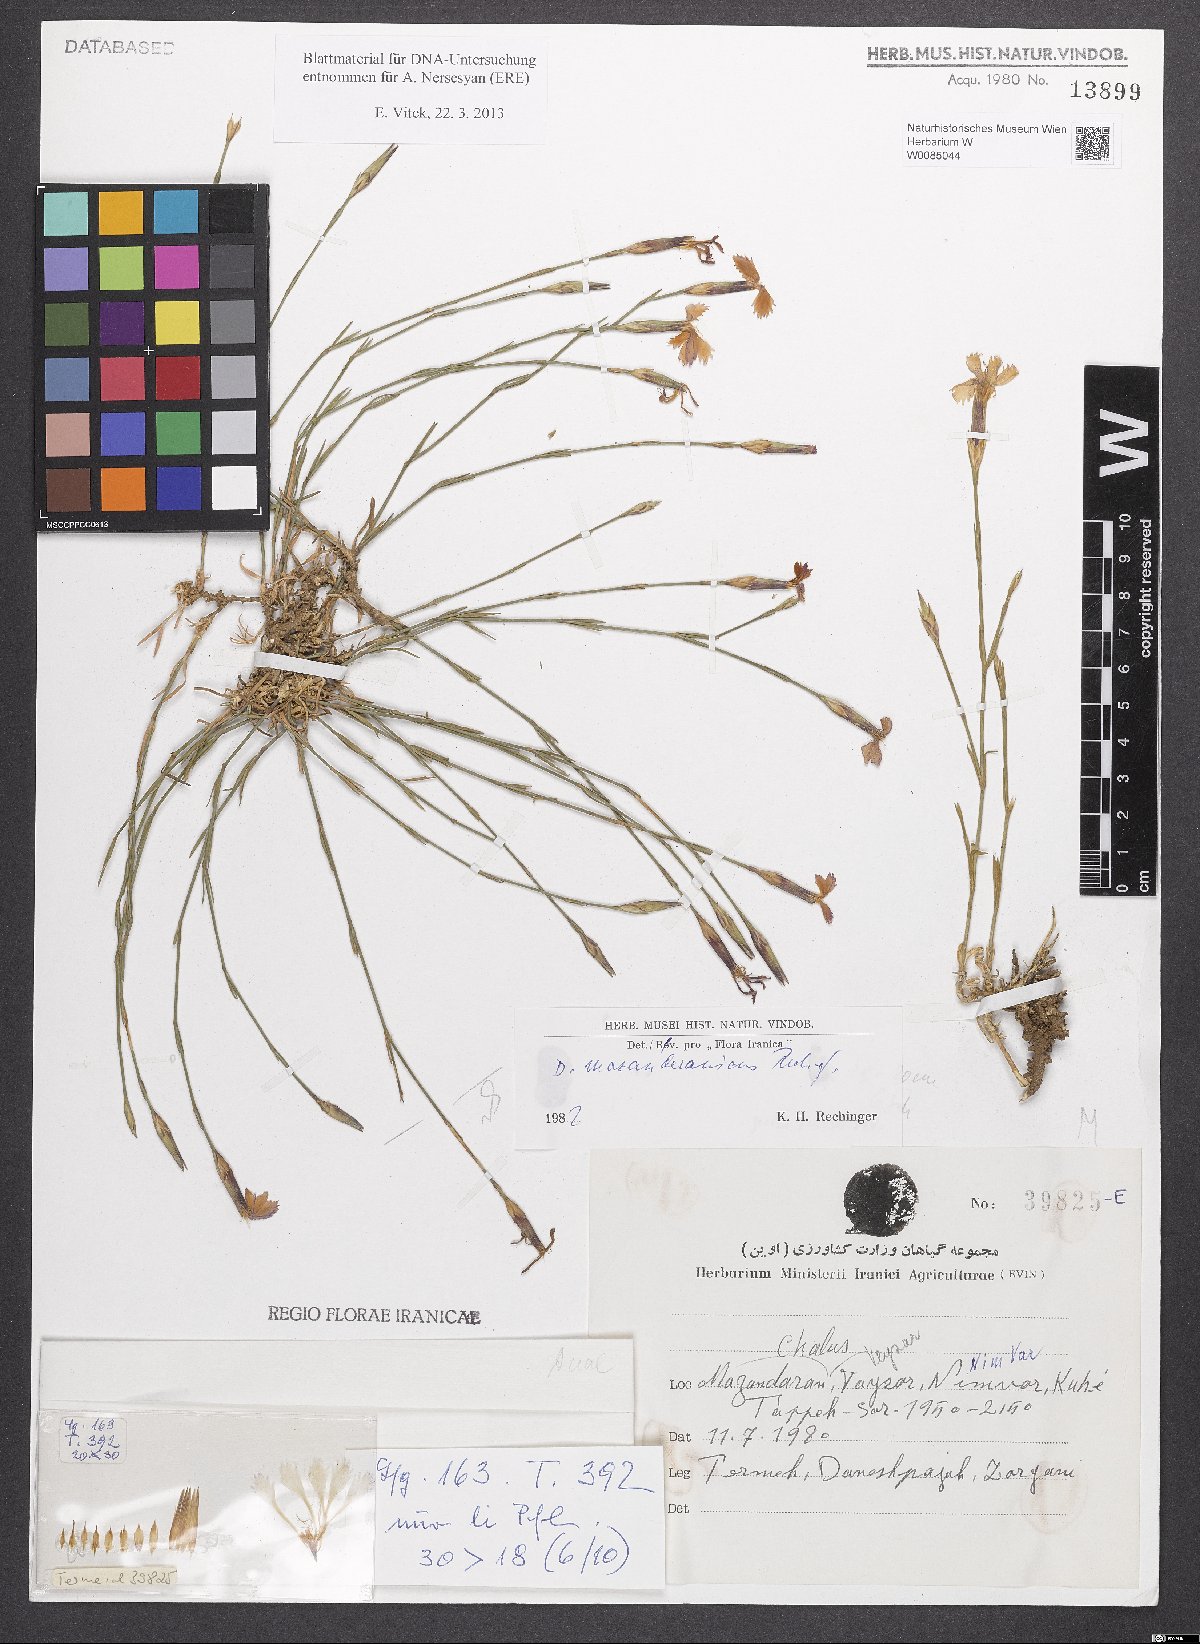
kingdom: Plantae
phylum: Tracheophyta
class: Magnoliopsida
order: Caryophyllales
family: Caryophyllaceae
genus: Dianthus
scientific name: Dianthus mazanderanicus
